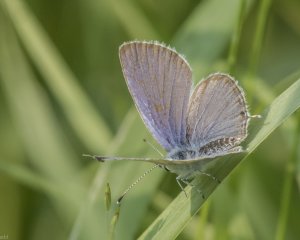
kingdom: Animalia
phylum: Arthropoda
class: Insecta
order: Lepidoptera
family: Lycaenidae
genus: Elkalyce
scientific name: Elkalyce amyntula
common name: Western Tailed-Blue
